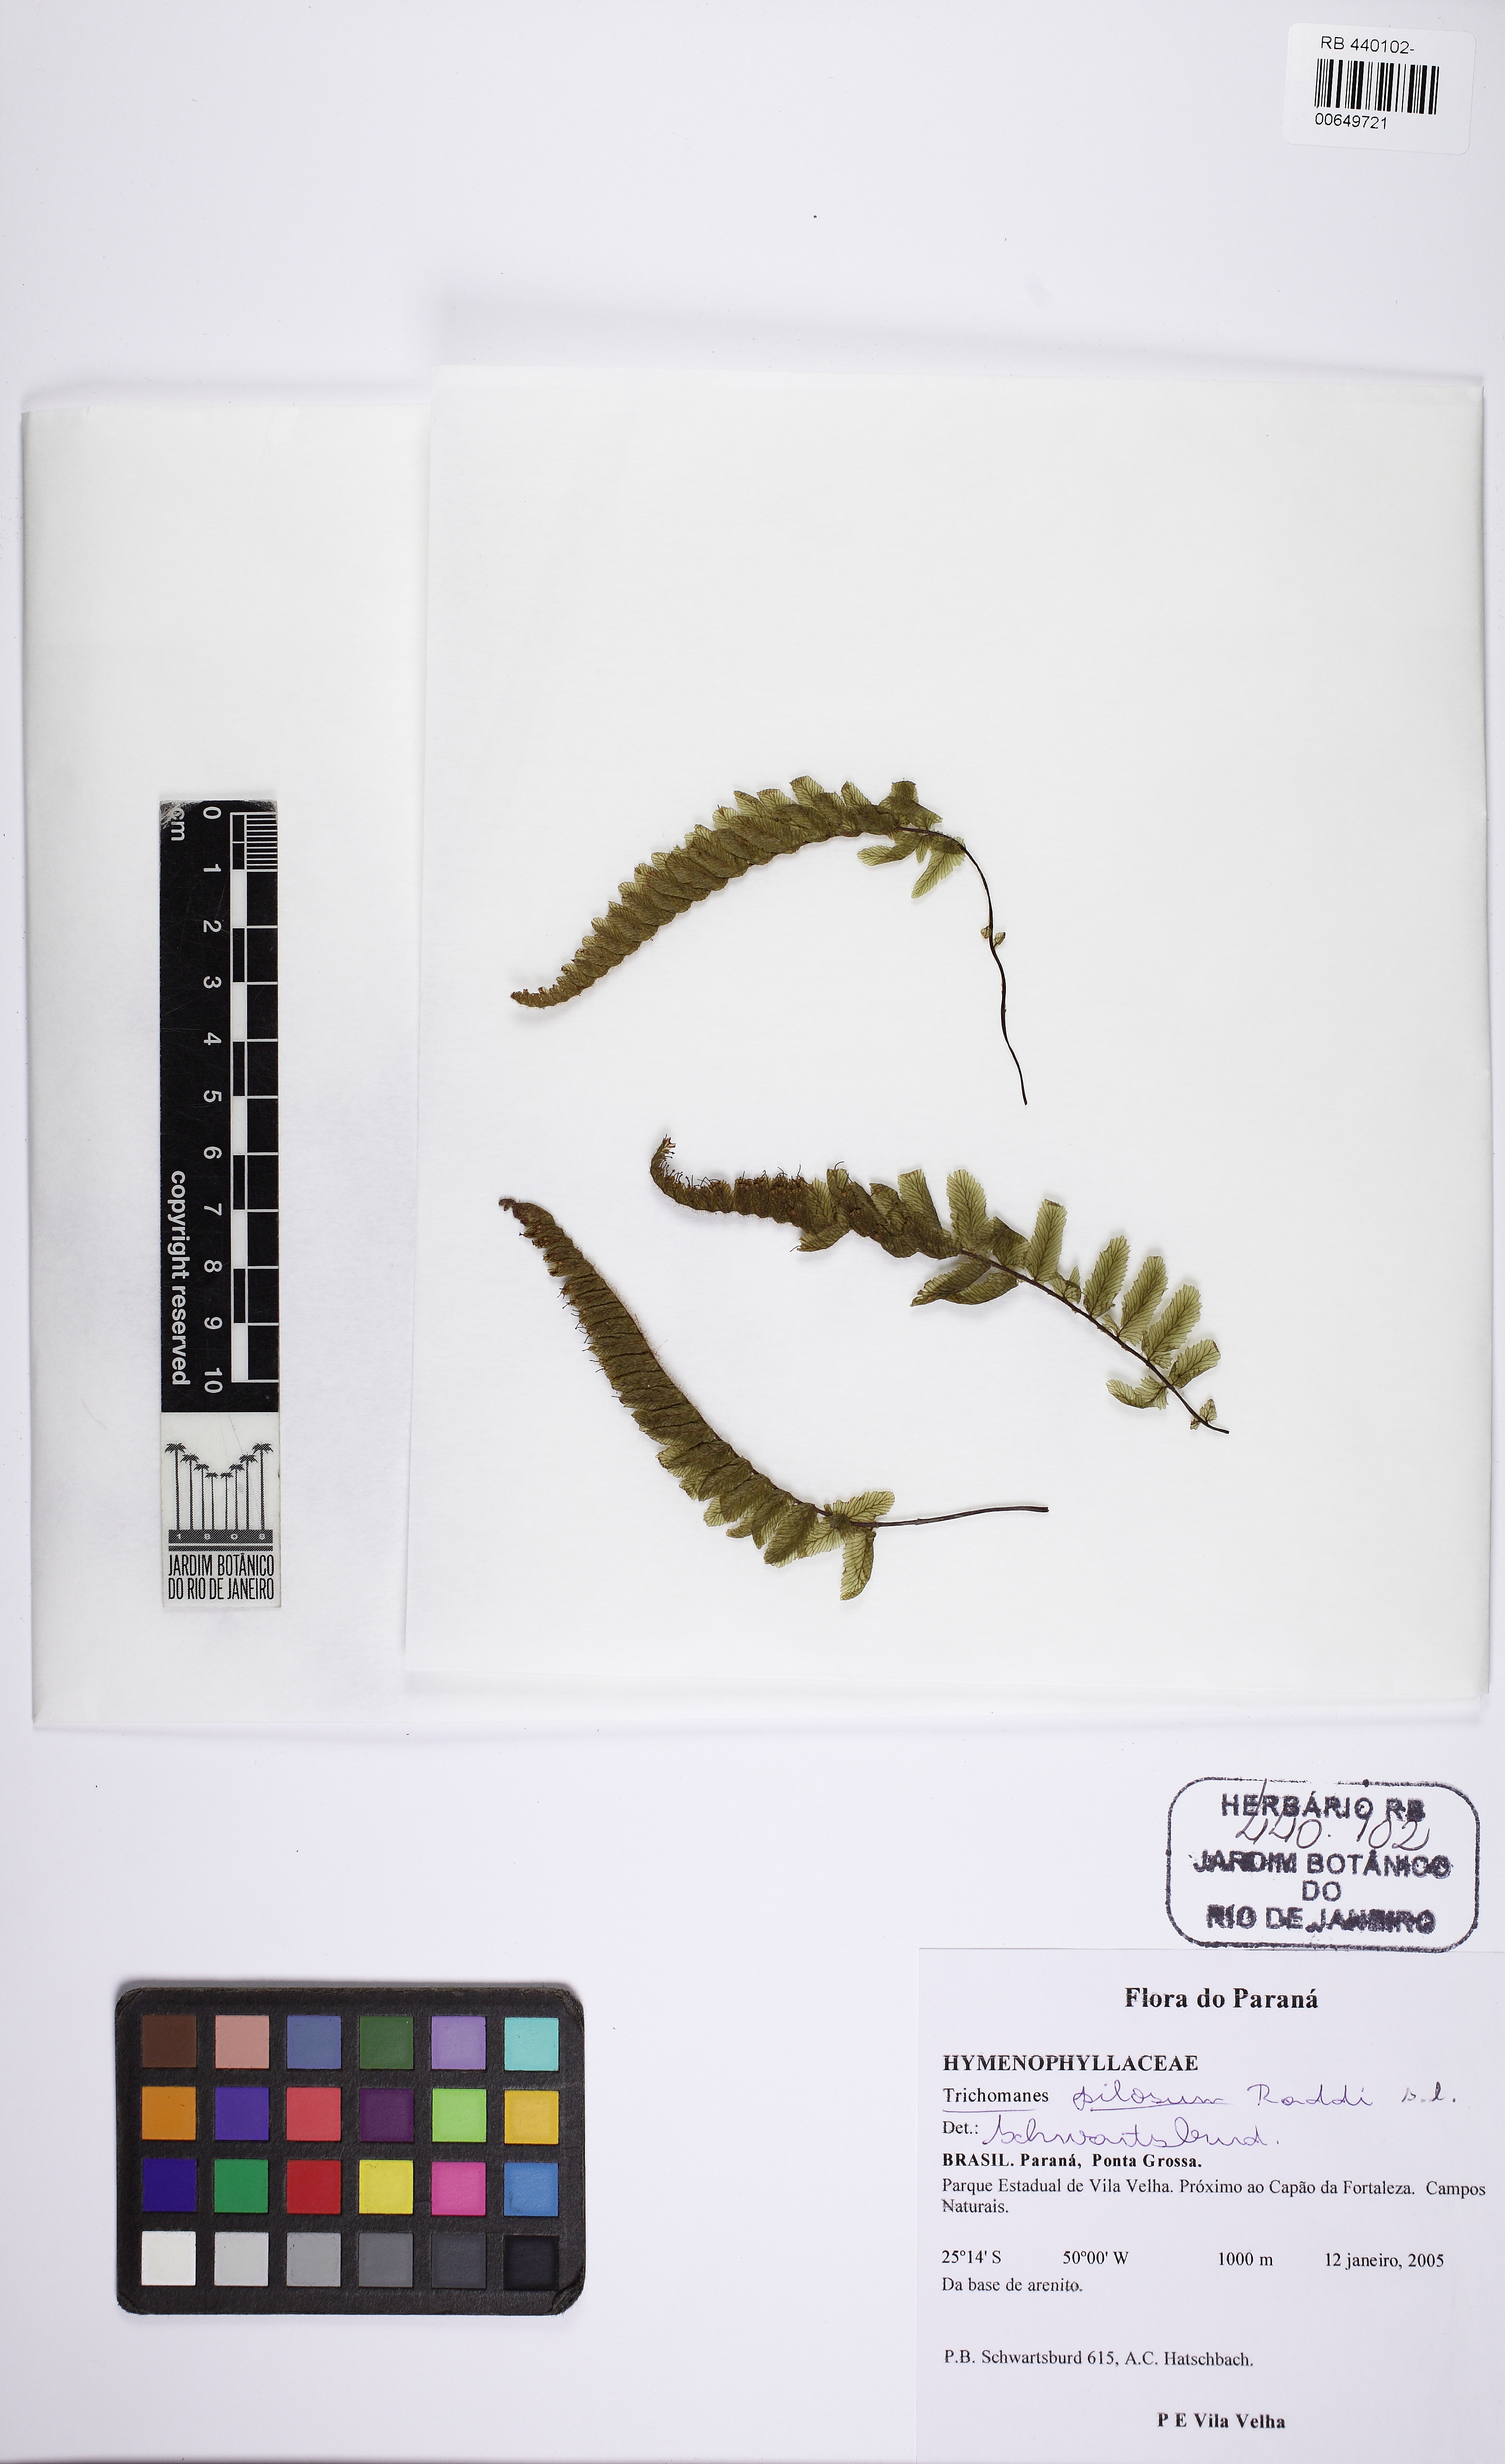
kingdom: Plantae
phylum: Tracheophyta
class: Polypodiopsida
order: Hymenophyllales
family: Hymenophyllaceae
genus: Trichomanes
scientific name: Trichomanes pilosum
